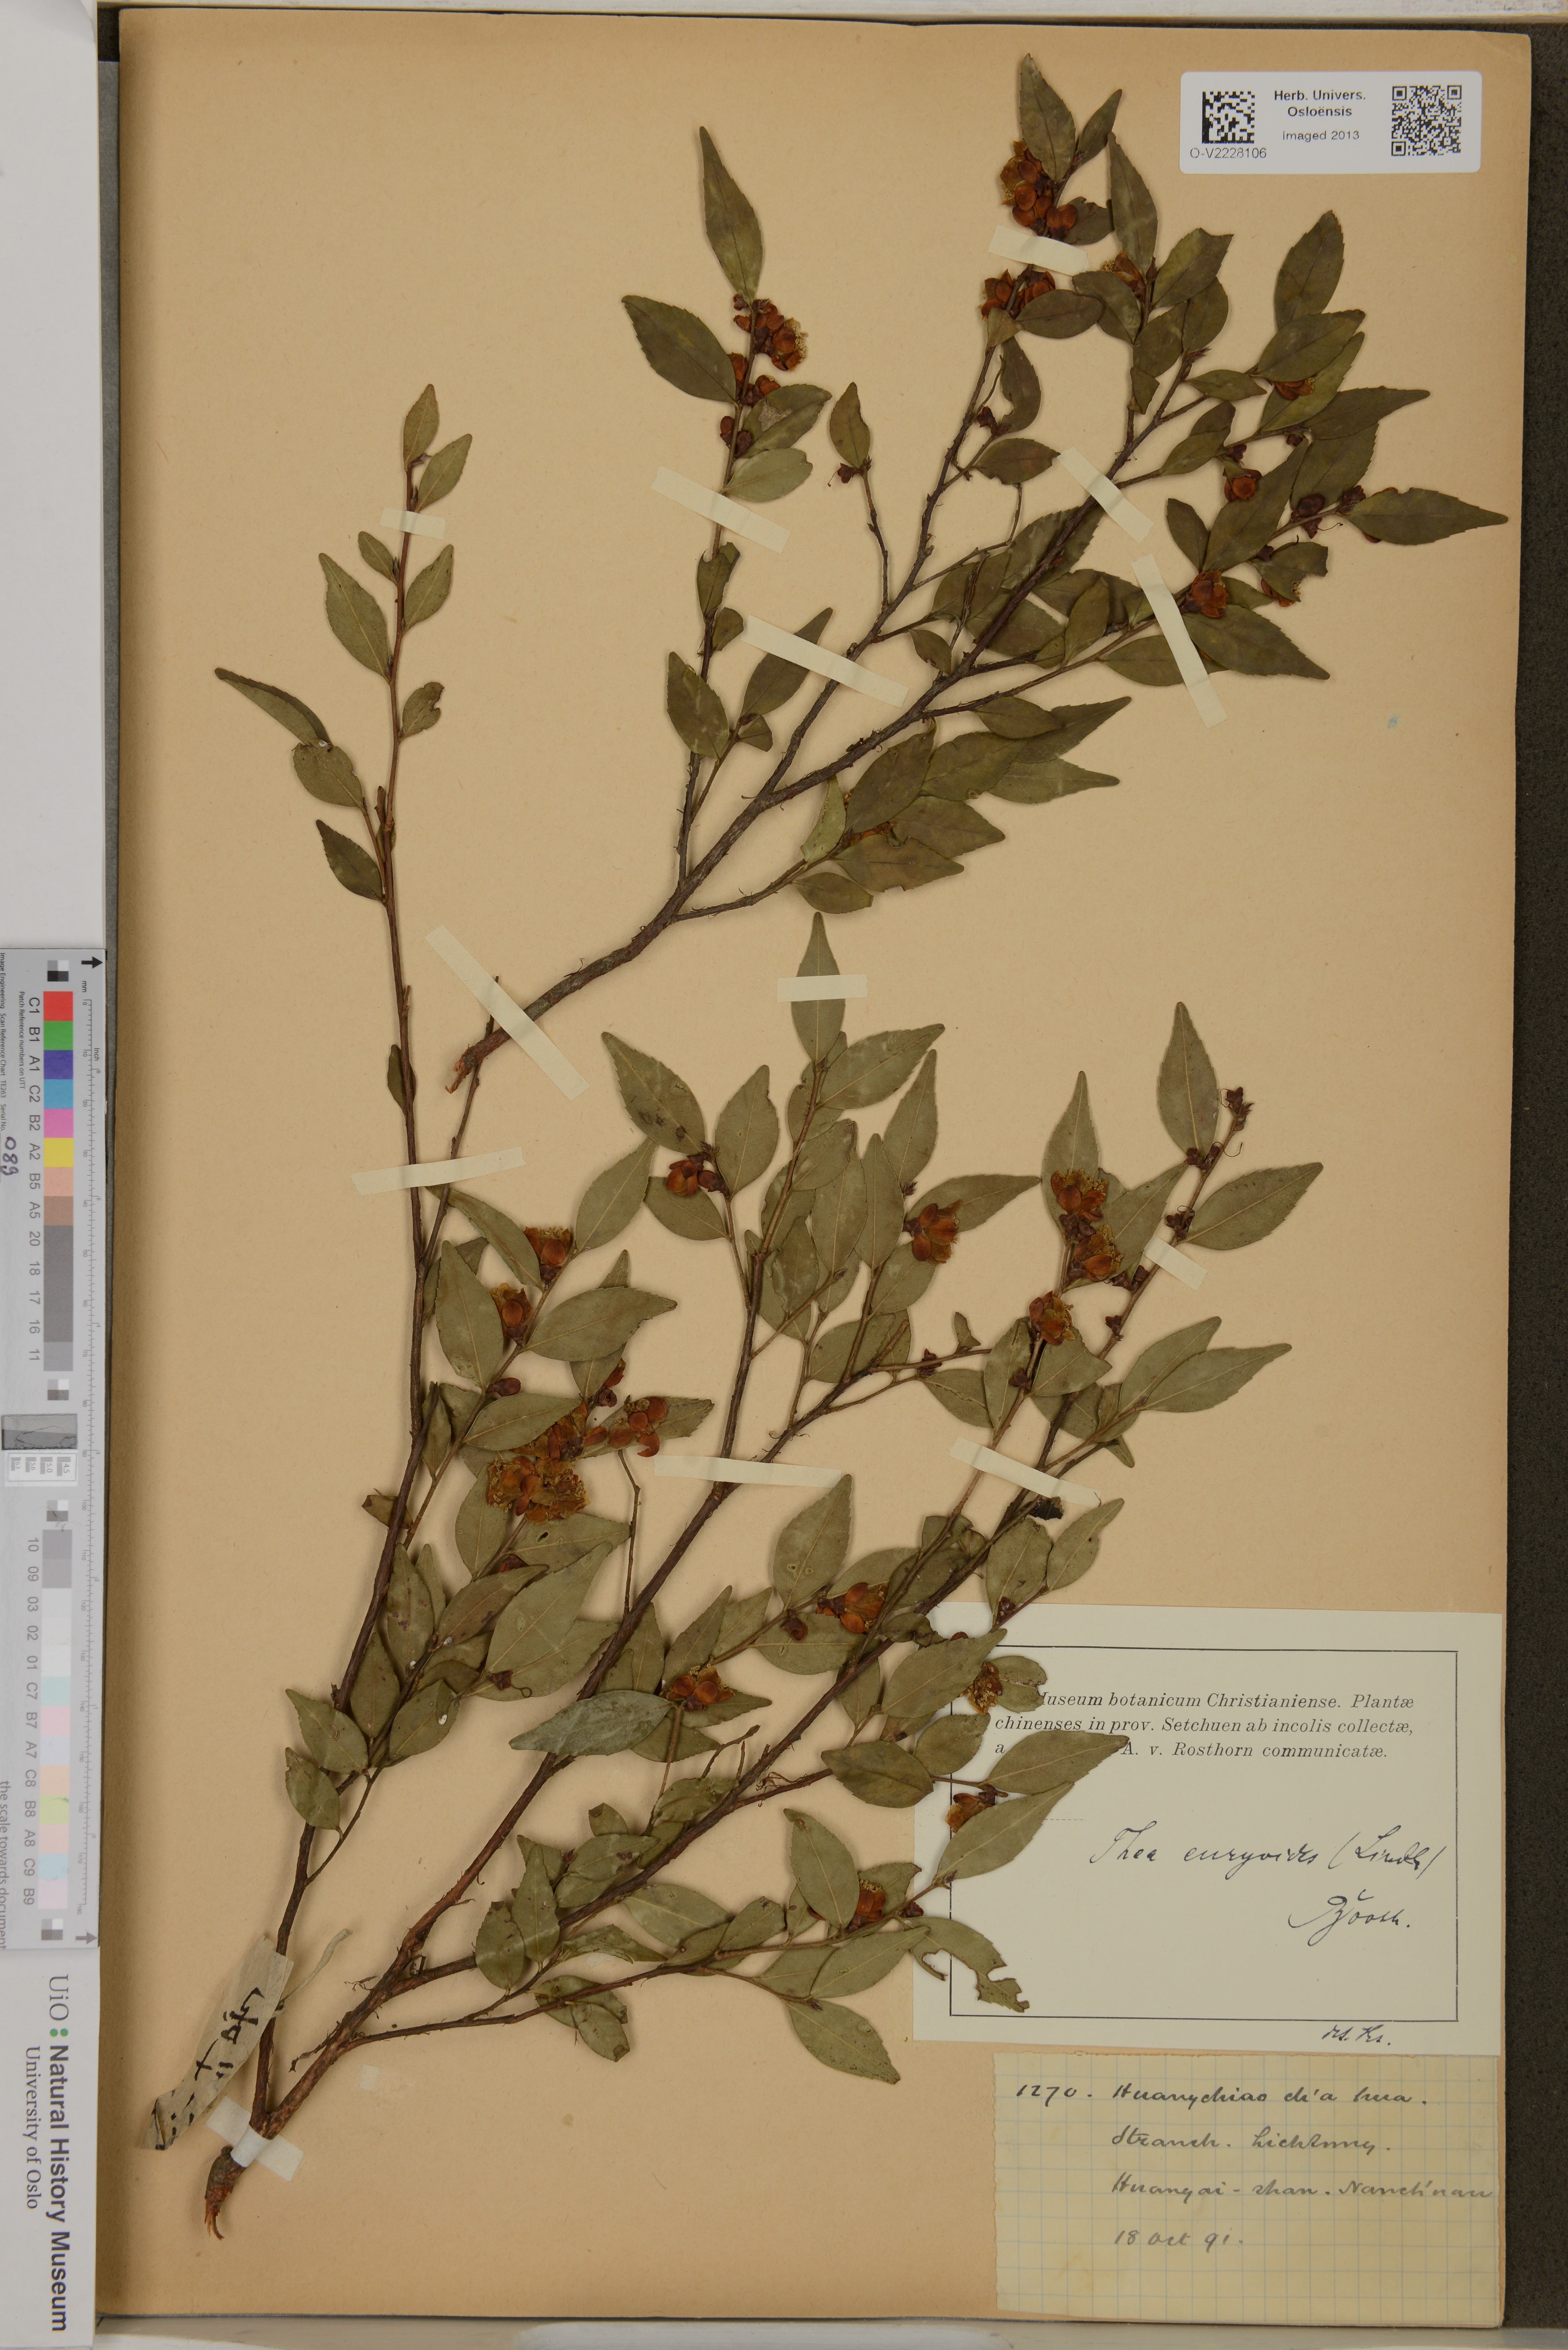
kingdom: Plantae
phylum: Tracheophyta
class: Magnoliopsida
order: Ericales
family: Theaceae
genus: Camellia
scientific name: Camellia euryoides
